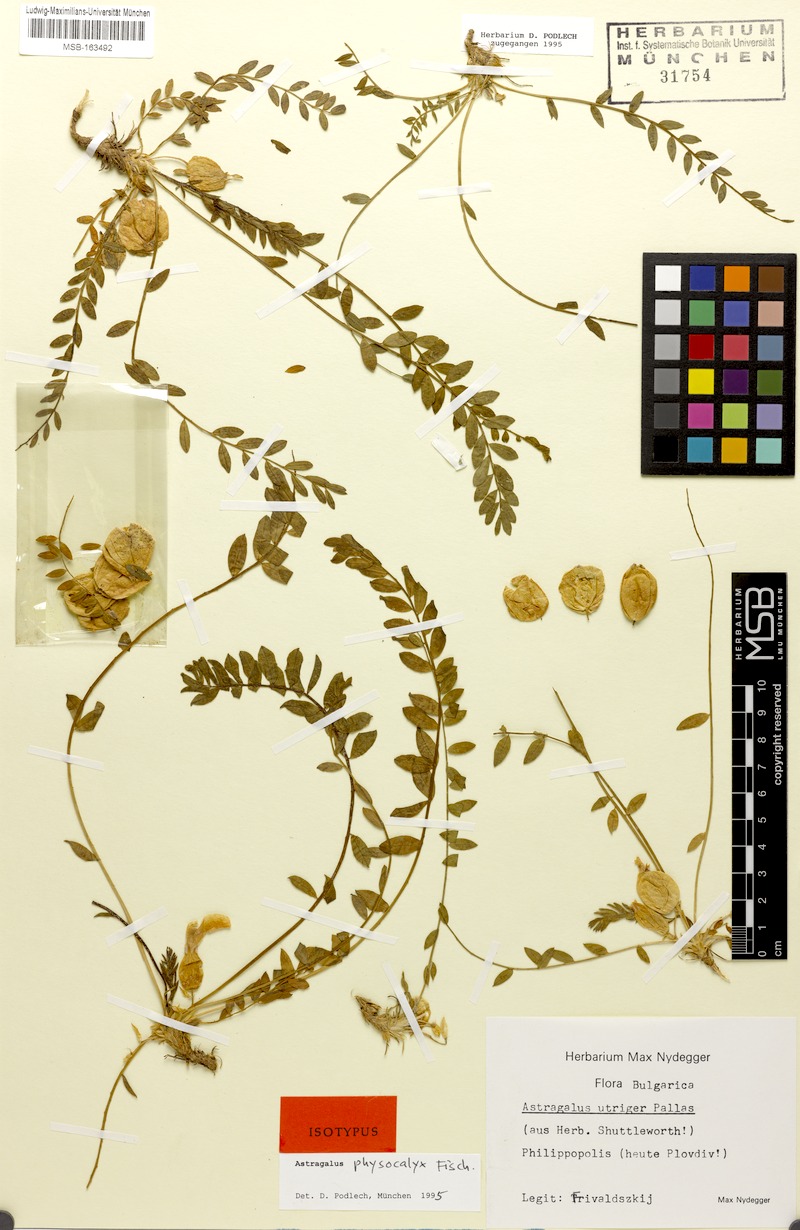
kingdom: Plantae
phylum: Tracheophyta
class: Magnoliopsida
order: Fabales
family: Fabaceae
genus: Astragalus
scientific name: Astragalus physocalyx
